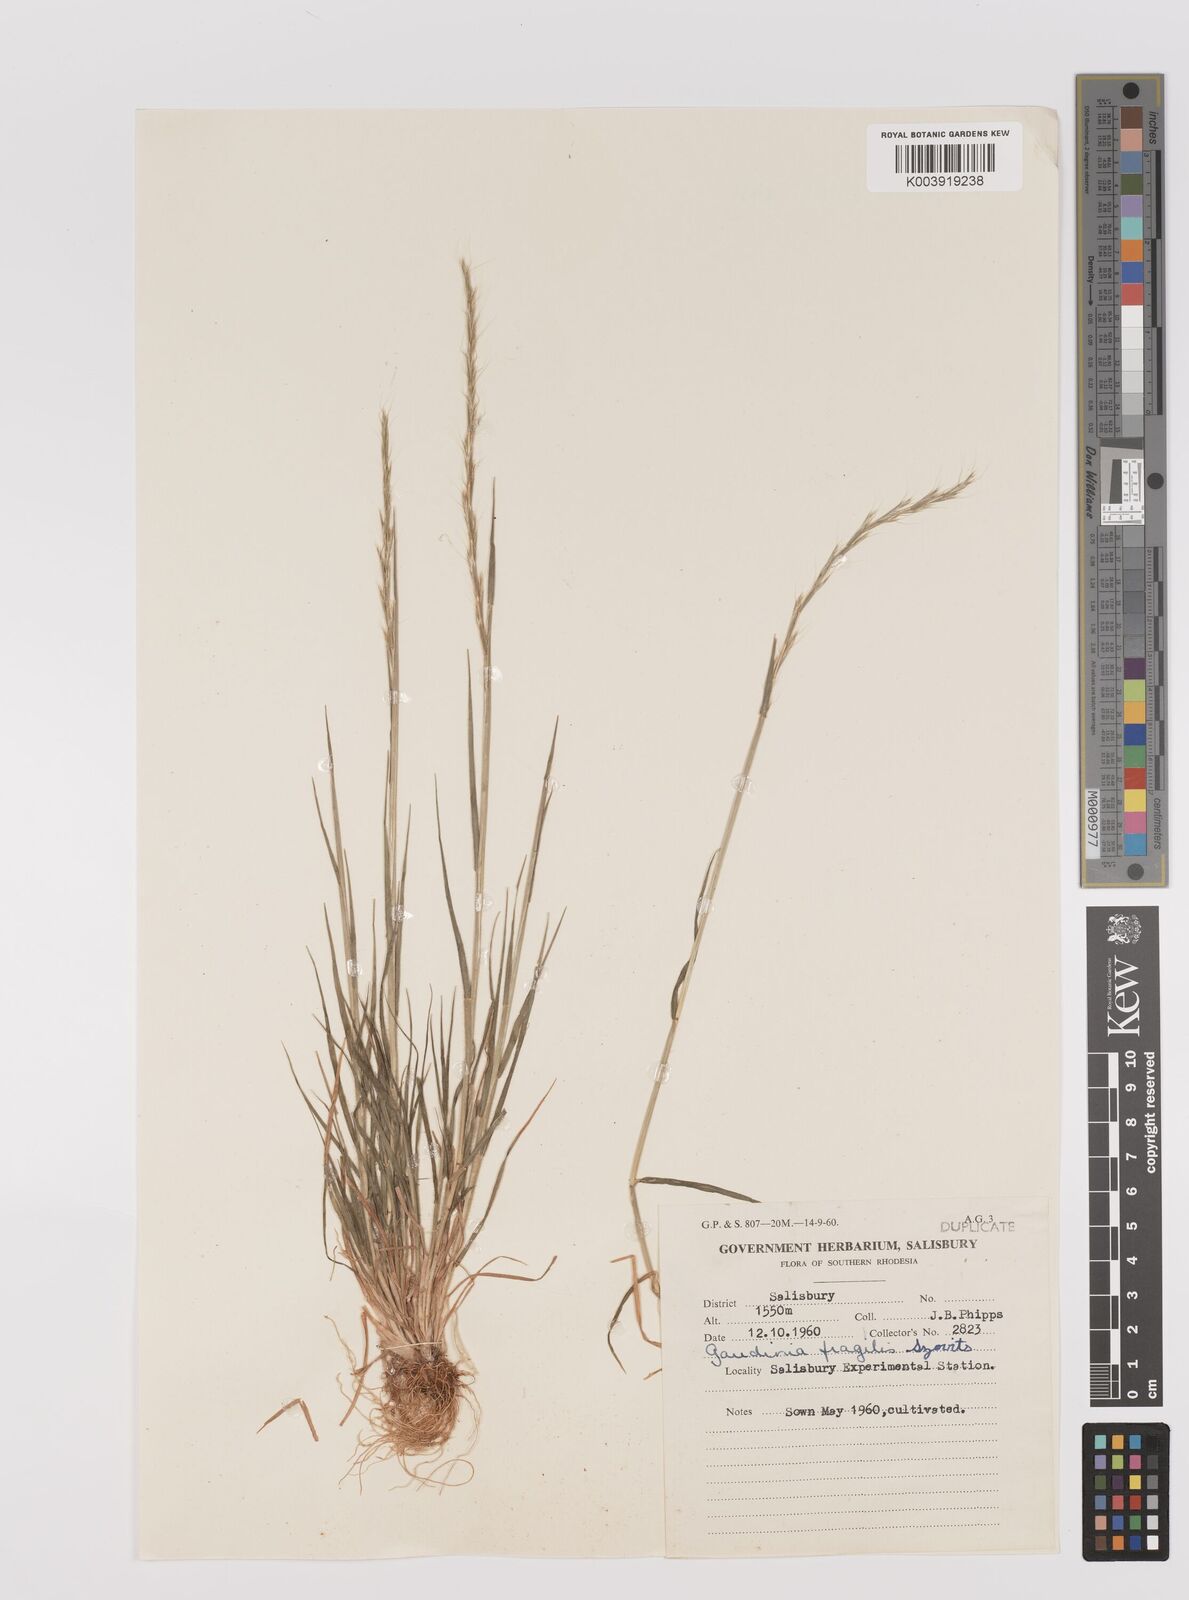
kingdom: Plantae
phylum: Tracheophyta
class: Liliopsida
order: Poales
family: Poaceae
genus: Gaudinia
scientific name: Gaudinia fragilis
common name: French oat-grass
